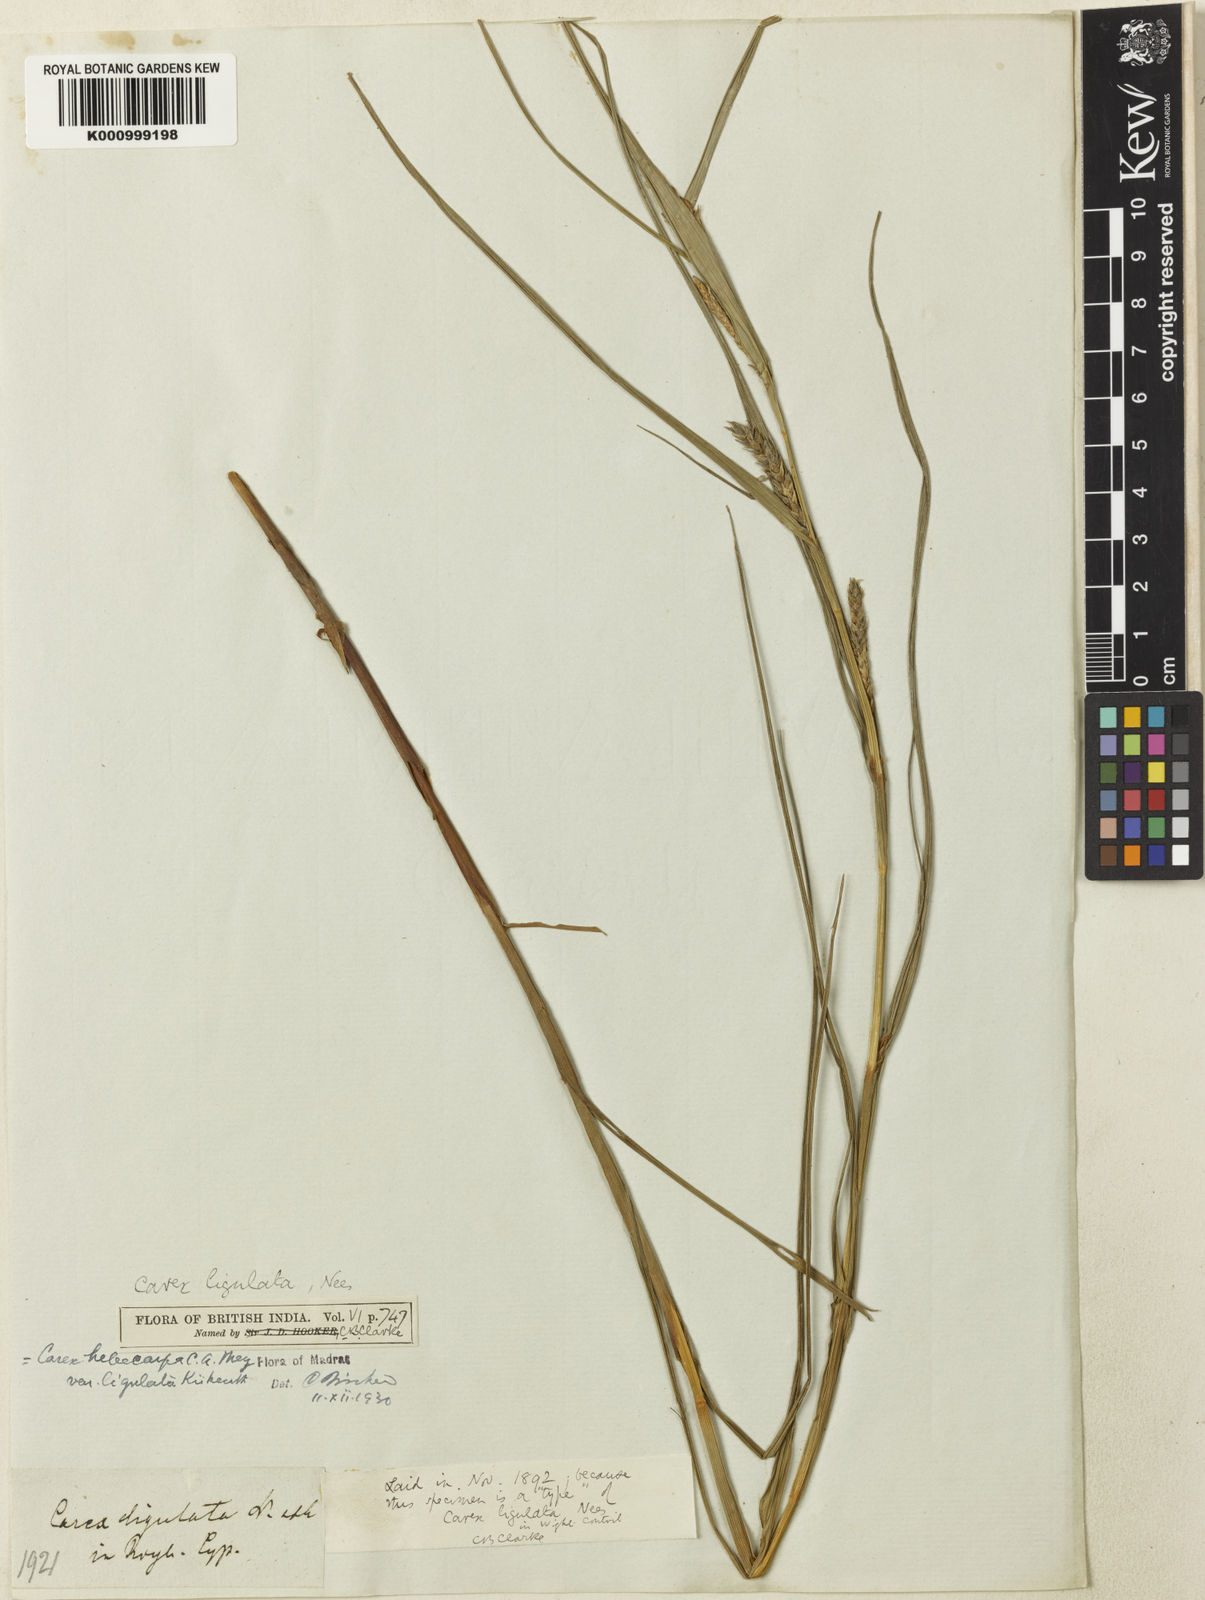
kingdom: Plantae
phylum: Tracheophyta
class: Liliopsida
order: Poales
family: Cyperaceae
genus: Carex
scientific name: Carex hebecarpa
